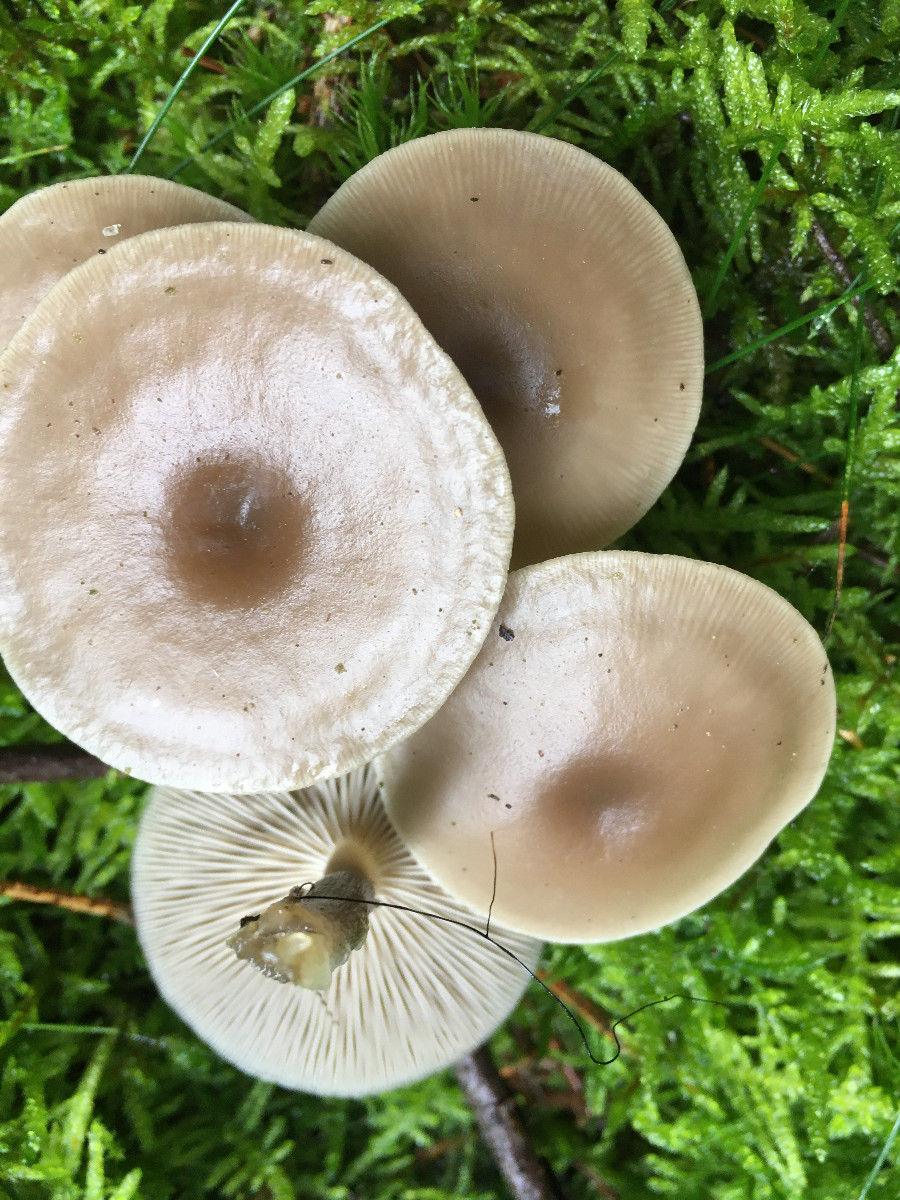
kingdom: Fungi
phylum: Basidiomycota
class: Agaricomycetes
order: Agaricales
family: Tricholomataceae
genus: Clitocybe
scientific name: Clitocybe
